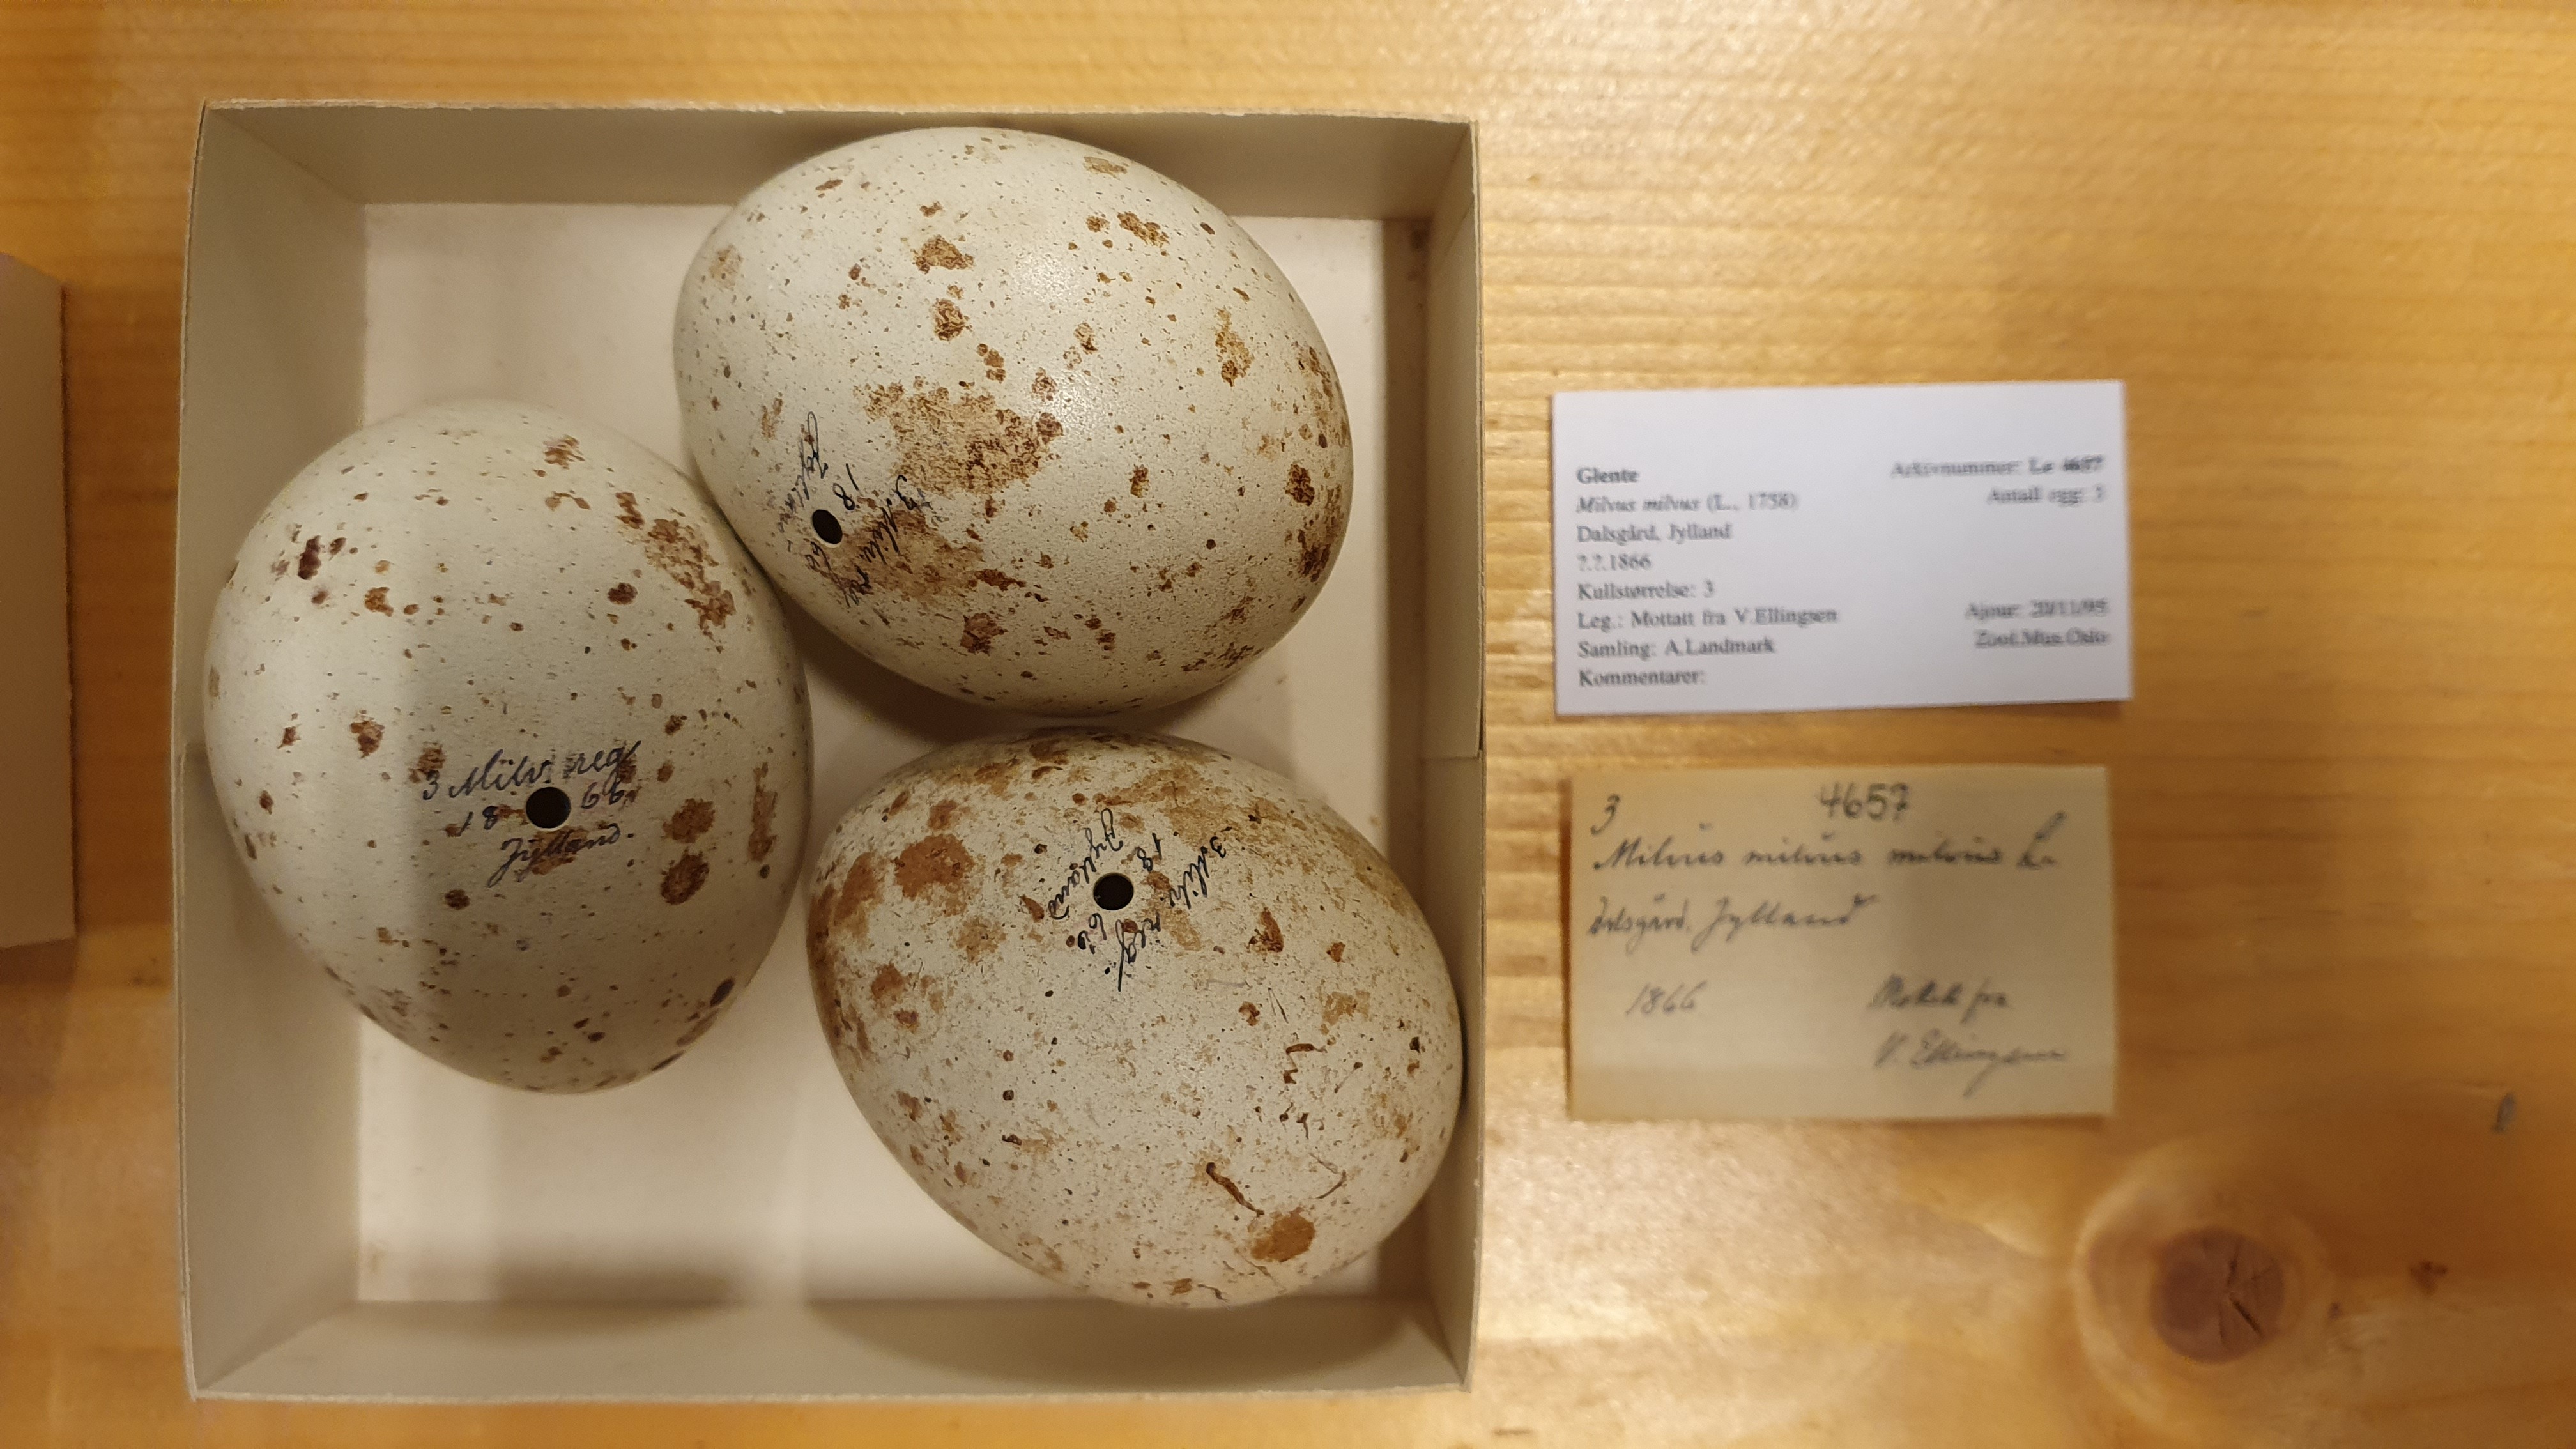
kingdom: Animalia
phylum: Chordata
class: Aves
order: Accipitriformes
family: Accipitridae
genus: Milvus
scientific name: Milvus milvus
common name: Red kite
